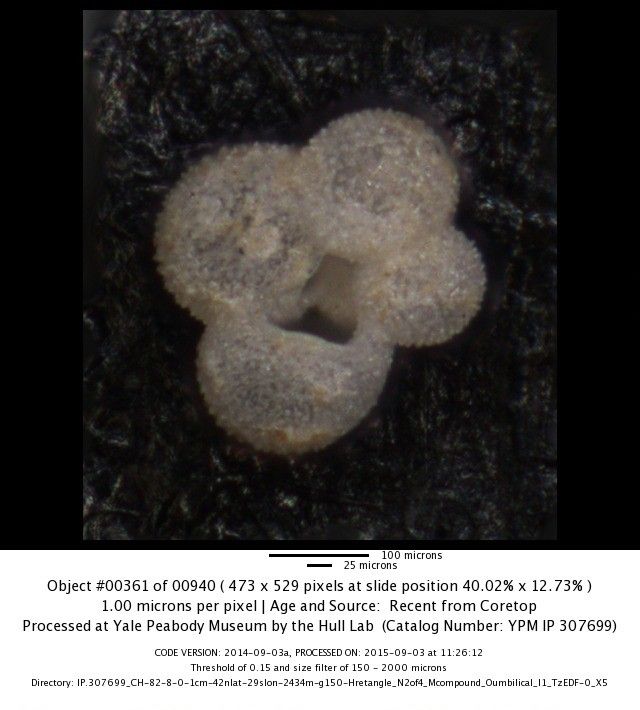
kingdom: Chromista
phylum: Foraminifera
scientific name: Foraminifera
